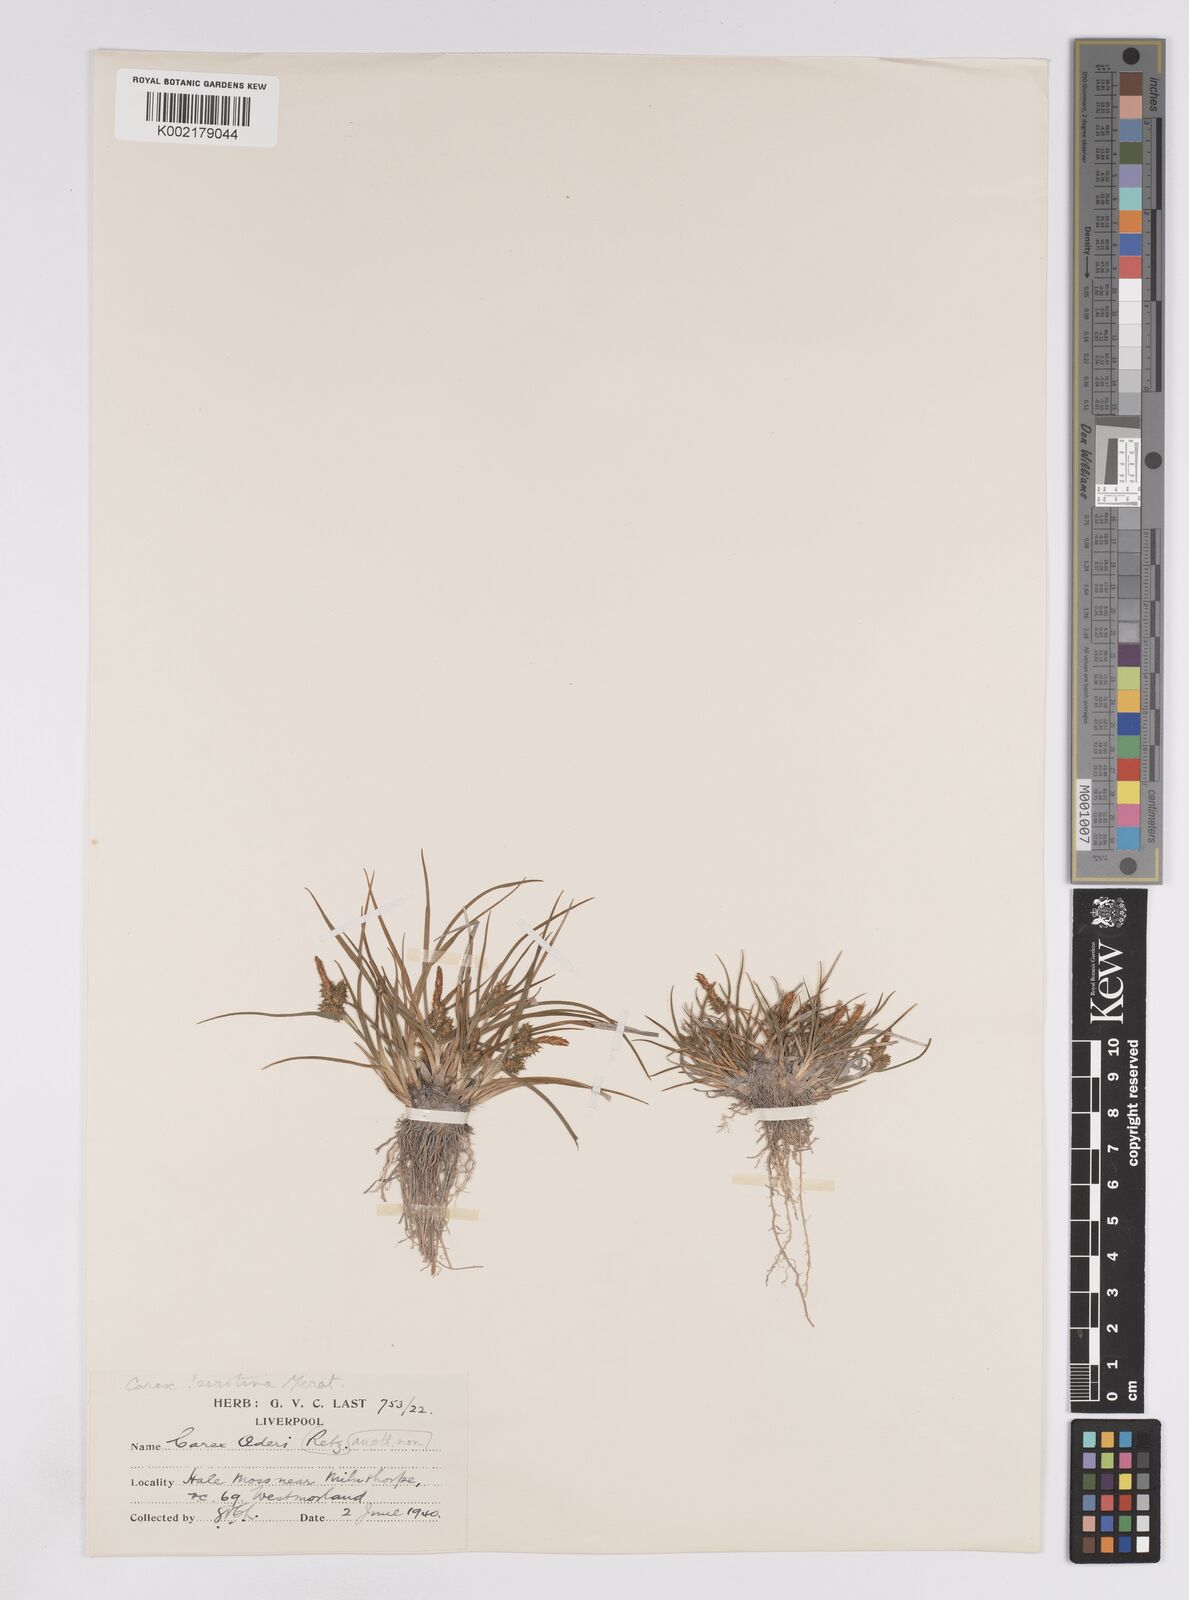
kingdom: Plantae
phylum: Tracheophyta
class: Liliopsida
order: Poales
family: Cyperaceae
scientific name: Cyperaceae
